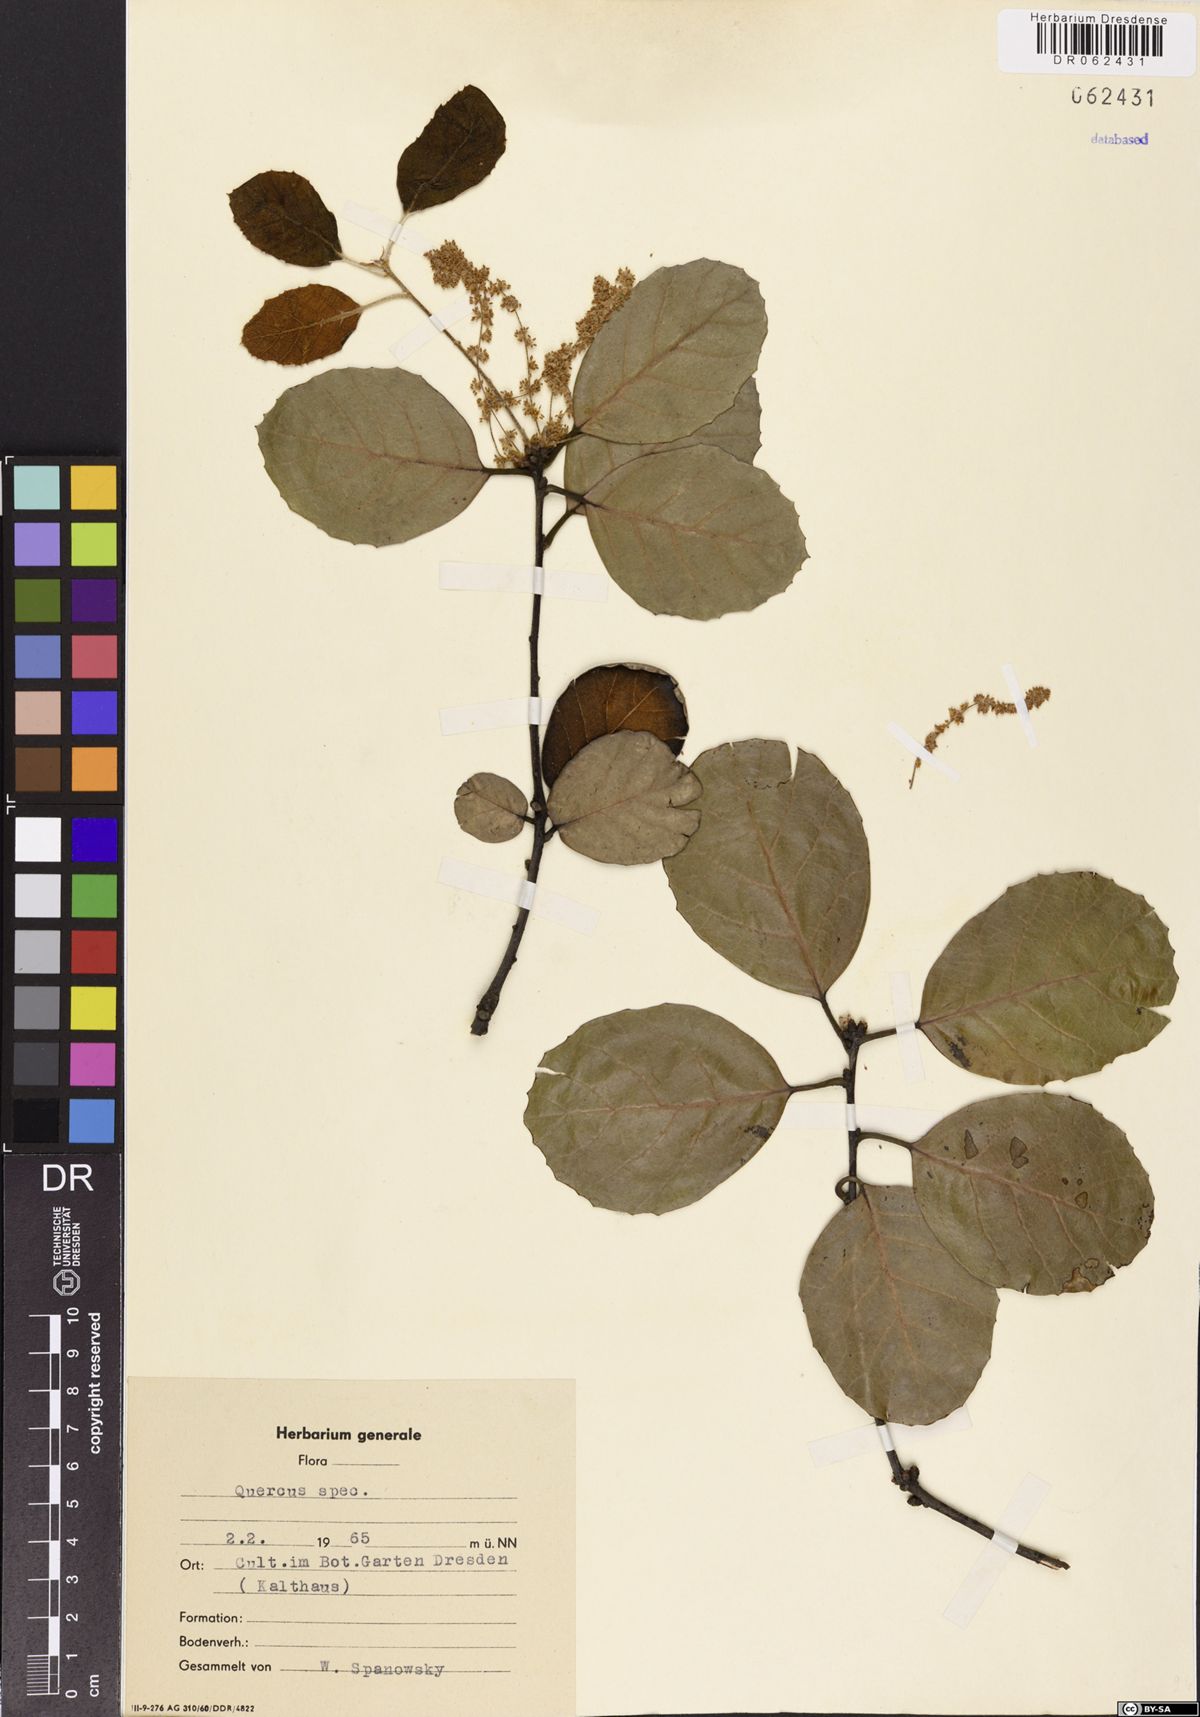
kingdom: Plantae
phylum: Tracheophyta
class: Magnoliopsida
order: Fagales
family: Fagaceae
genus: Quercus
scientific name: Quercus
